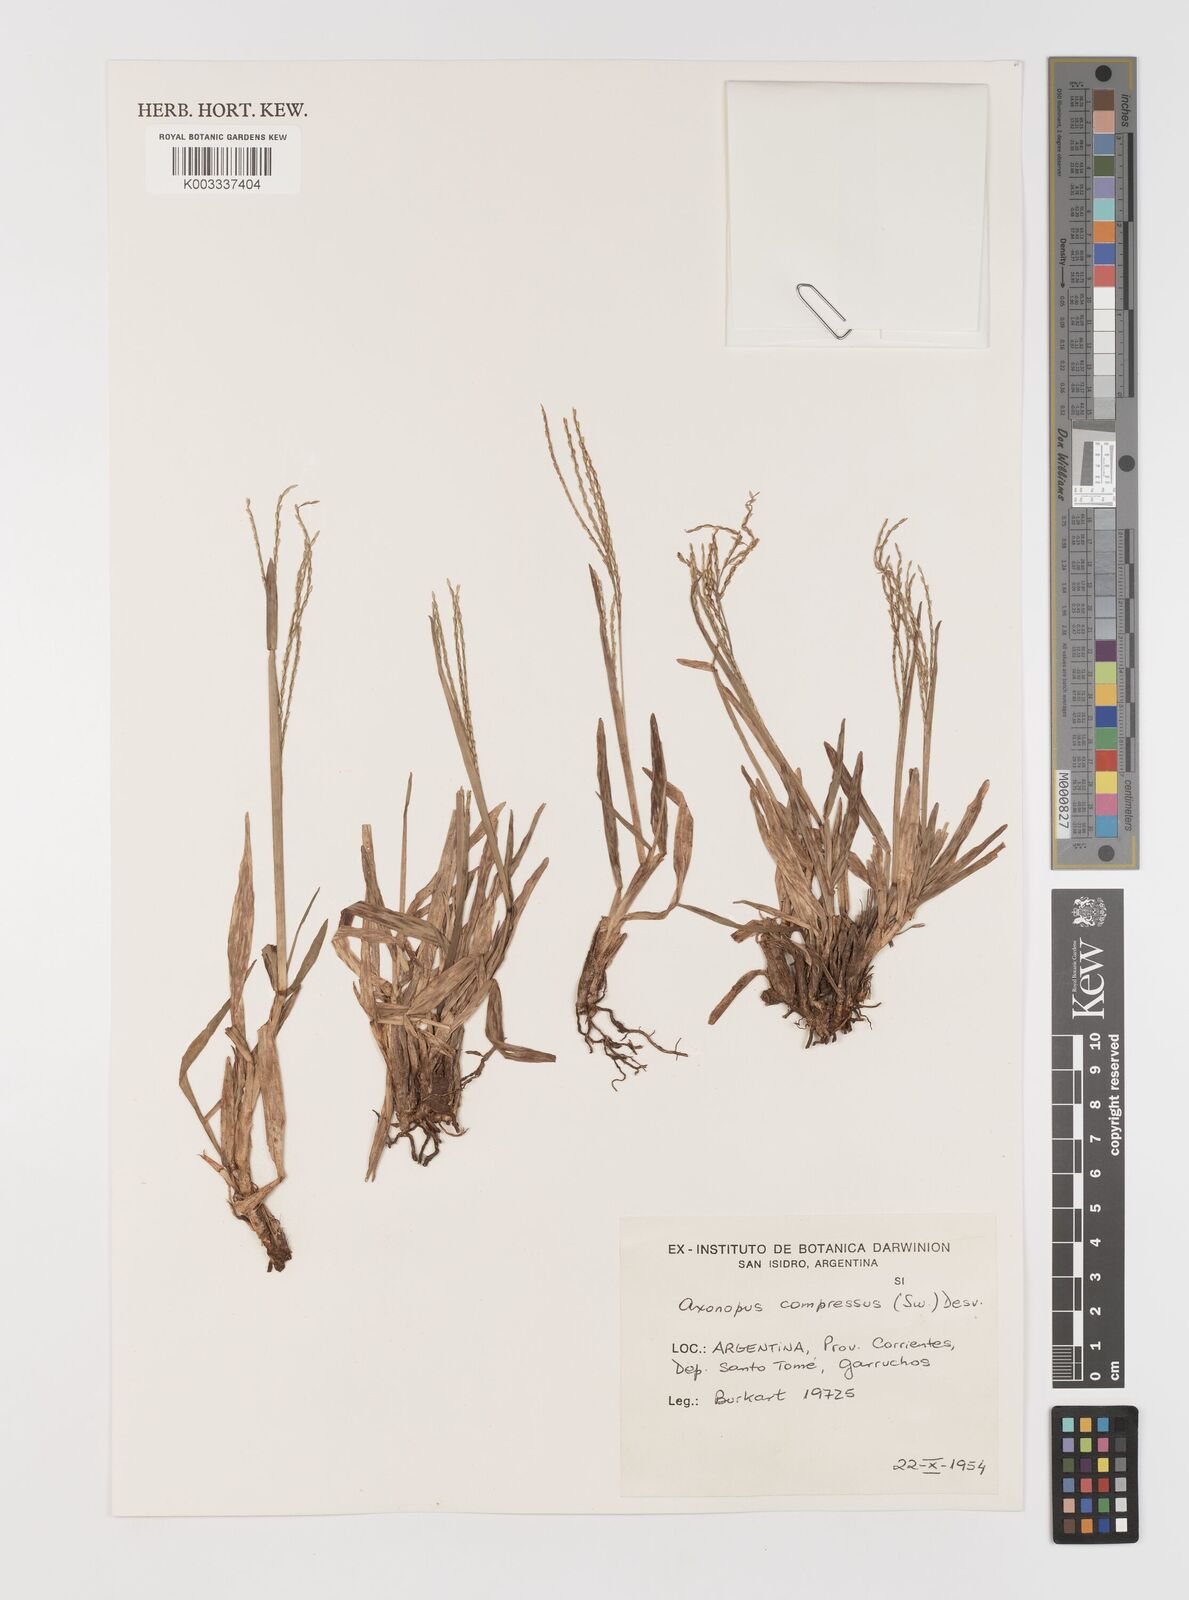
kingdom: Plantae
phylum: Tracheophyta
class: Liliopsida
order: Poales
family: Poaceae
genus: Axonopus
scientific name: Axonopus compressus
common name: American carpet grass
